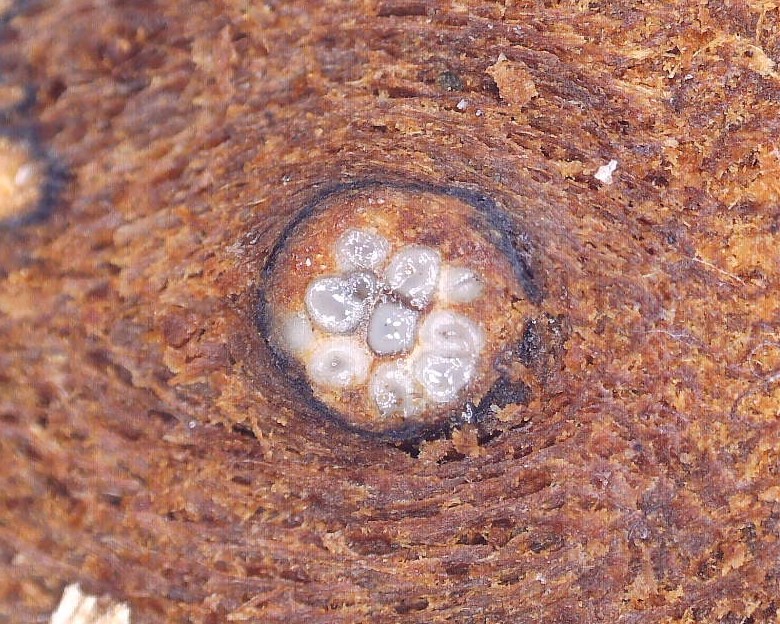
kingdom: Fungi
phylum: Ascomycota
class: Sordariomycetes
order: Xylariales
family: Diatrypaceae
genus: Eutypella
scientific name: Eutypella prunastri
